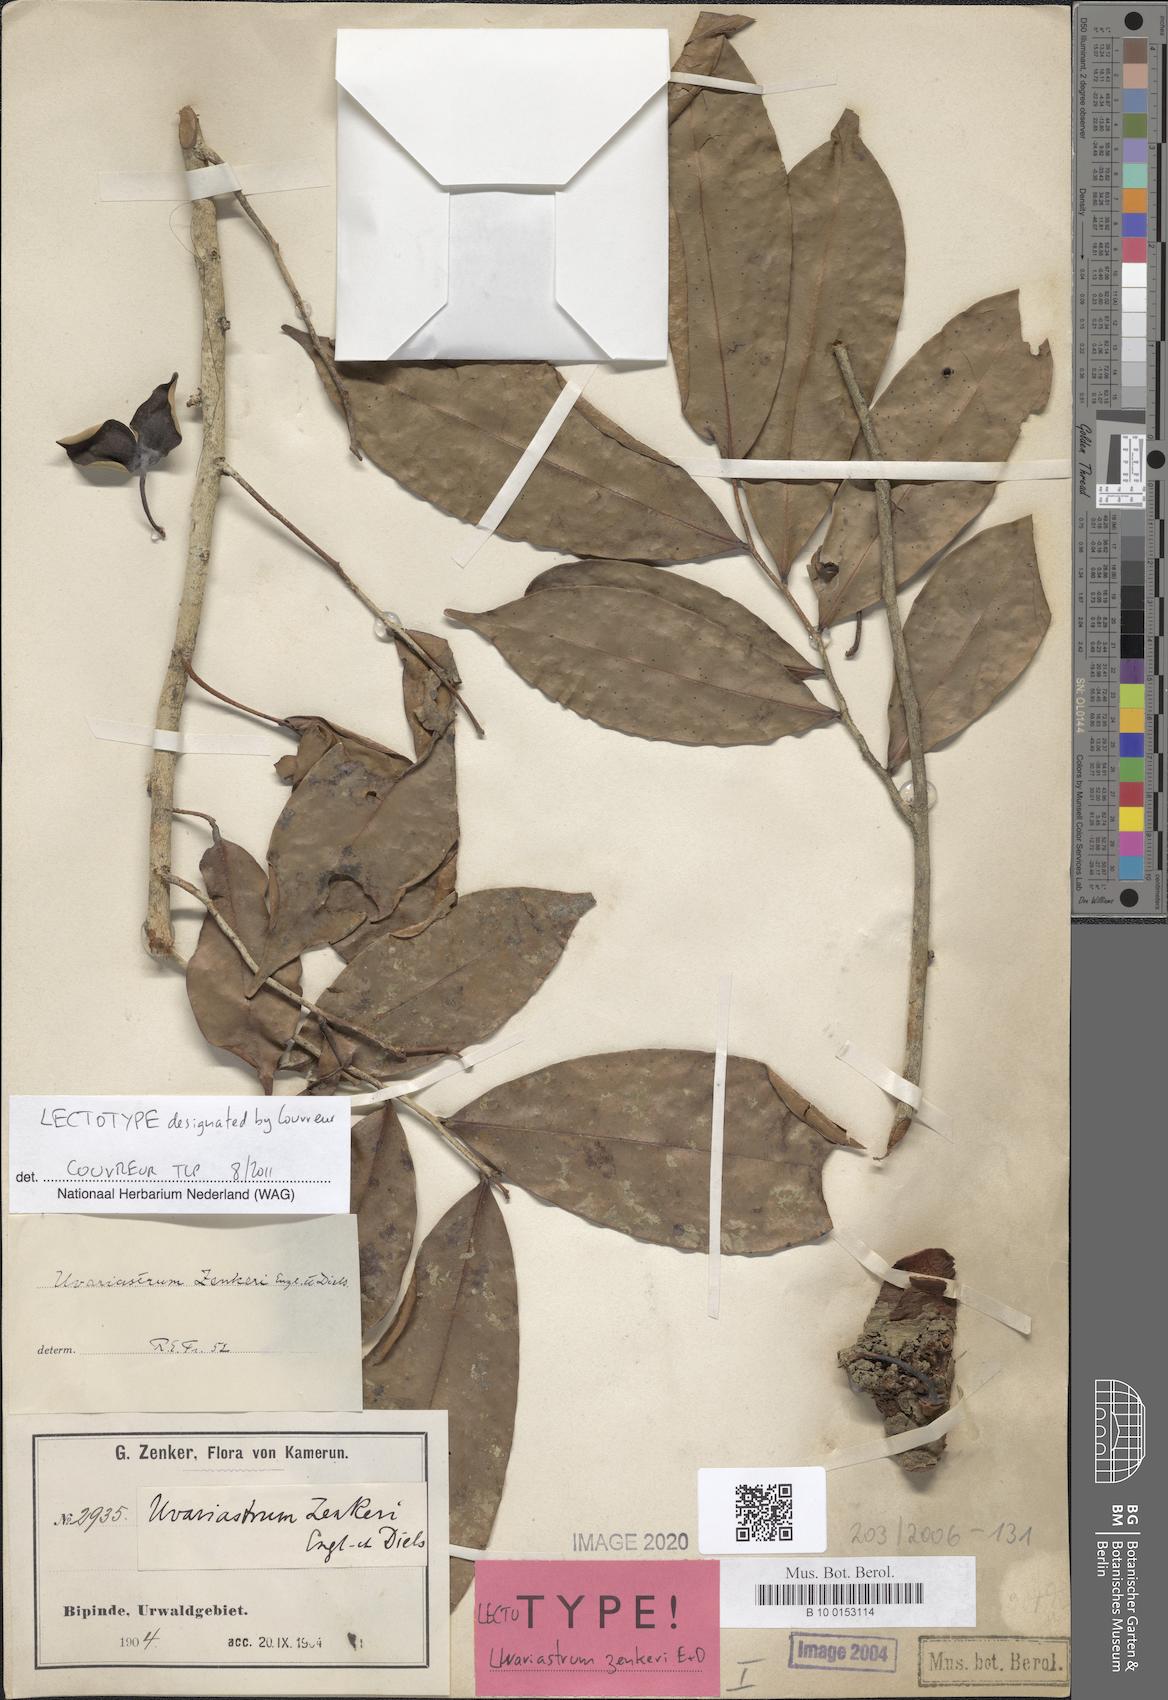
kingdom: Plantae
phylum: Tracheophyta
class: Magnoliopsida
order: Magnoliales
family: Annonaceae
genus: Uvariastrum
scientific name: Uvariastrum zenkeri
